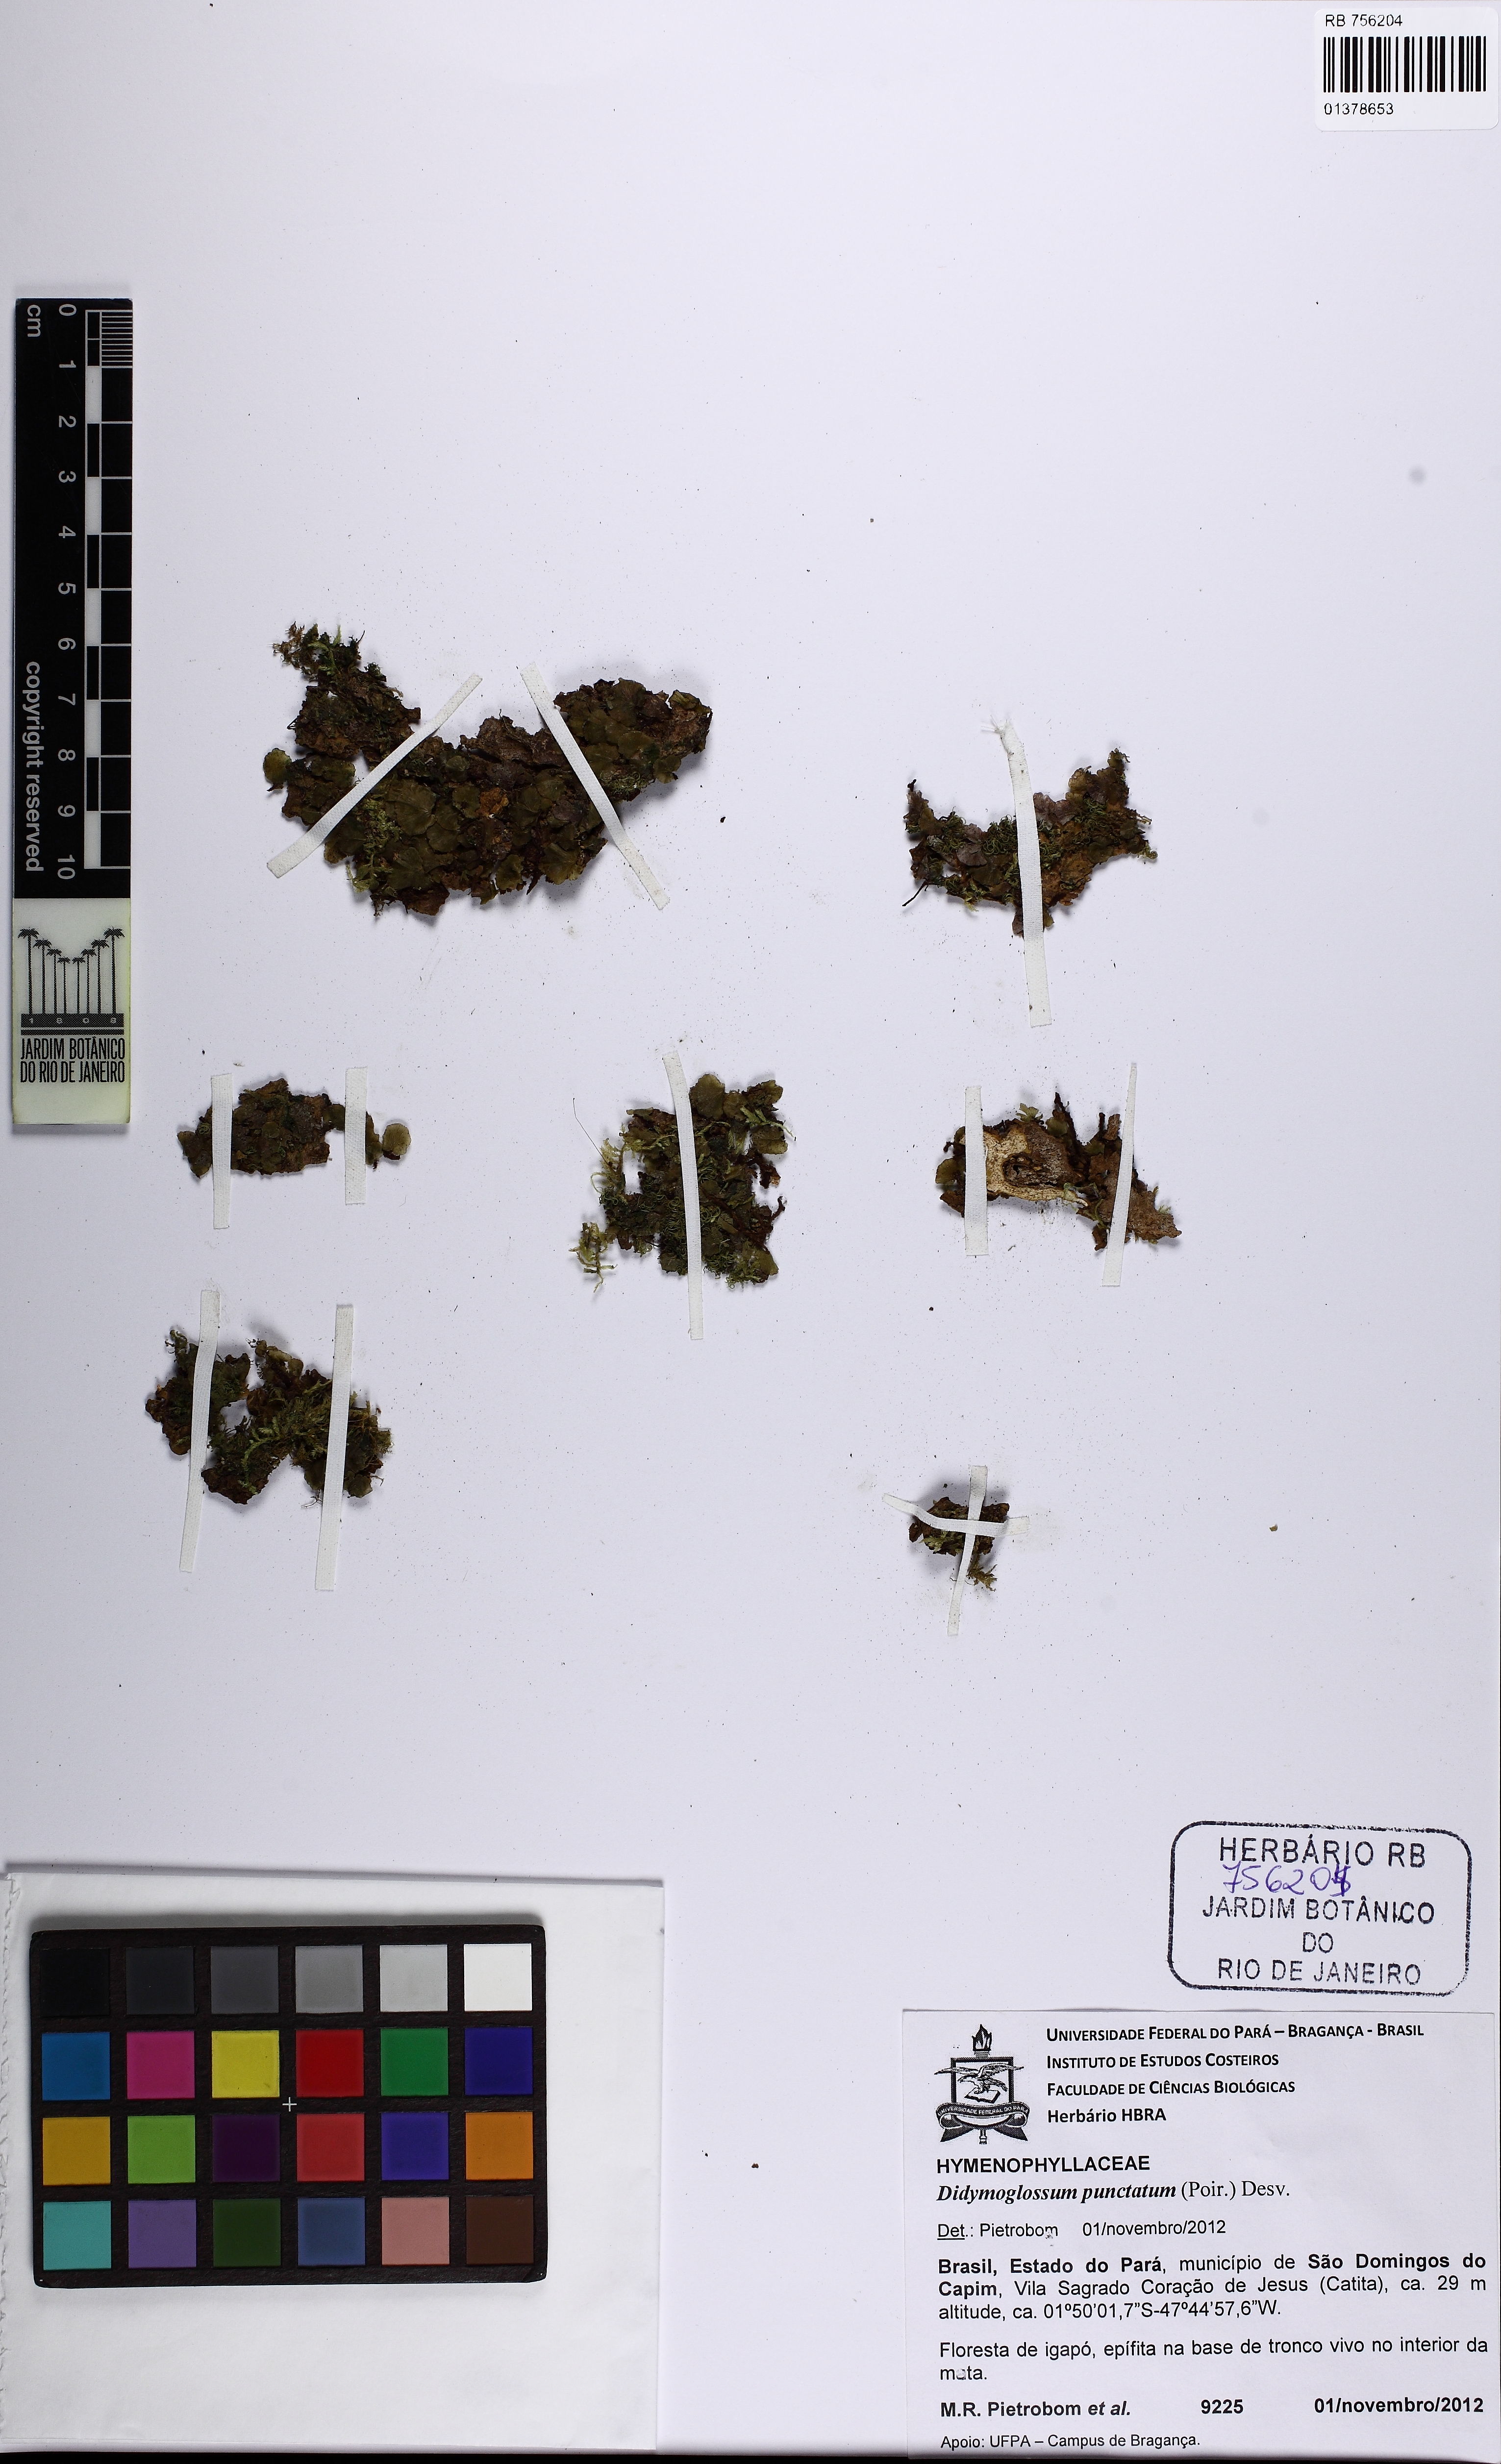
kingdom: Plantae
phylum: Tracheophyta
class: Polypodiopsida
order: Hymenophyllales
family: Hymenophyllaceae
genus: Didymoglossum
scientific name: Didymoglossum punctatum
